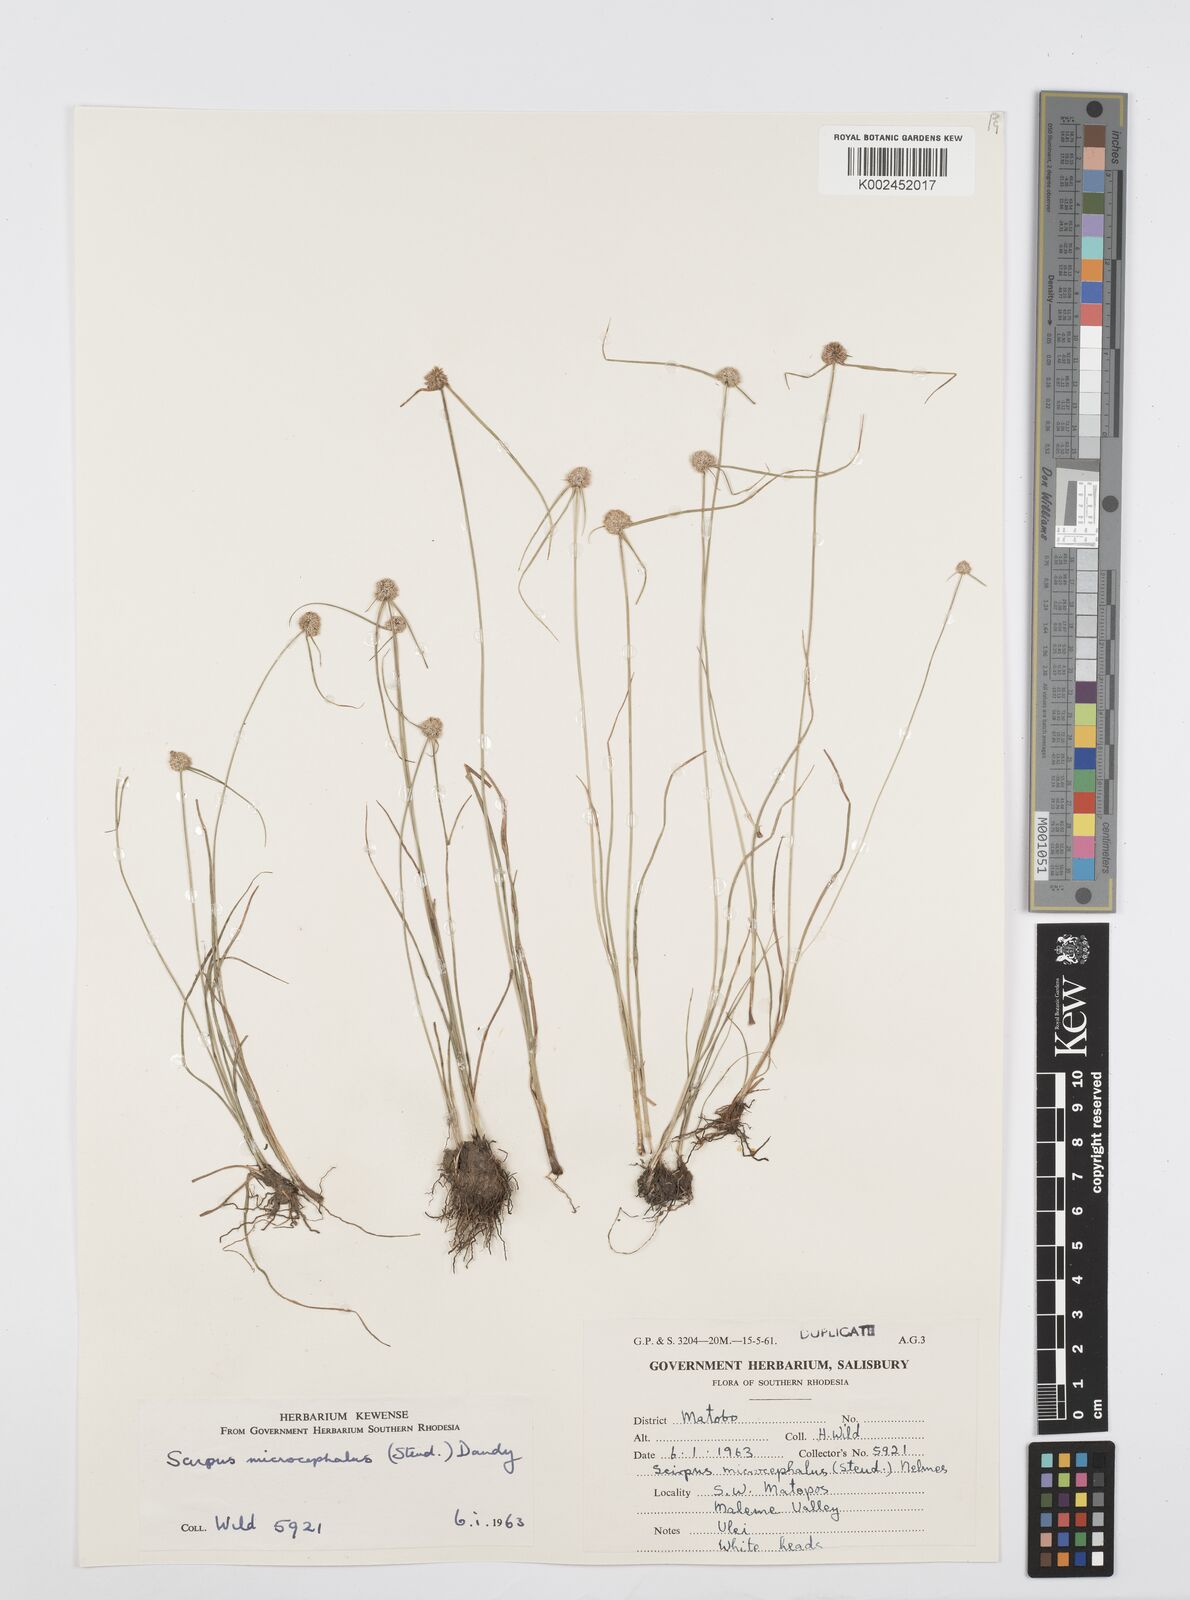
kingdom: Plantae
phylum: Tracheophyta
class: Liliopsida
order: Poales
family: Cyperaceae
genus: Cyperus
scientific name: Cyperus conglobatus
